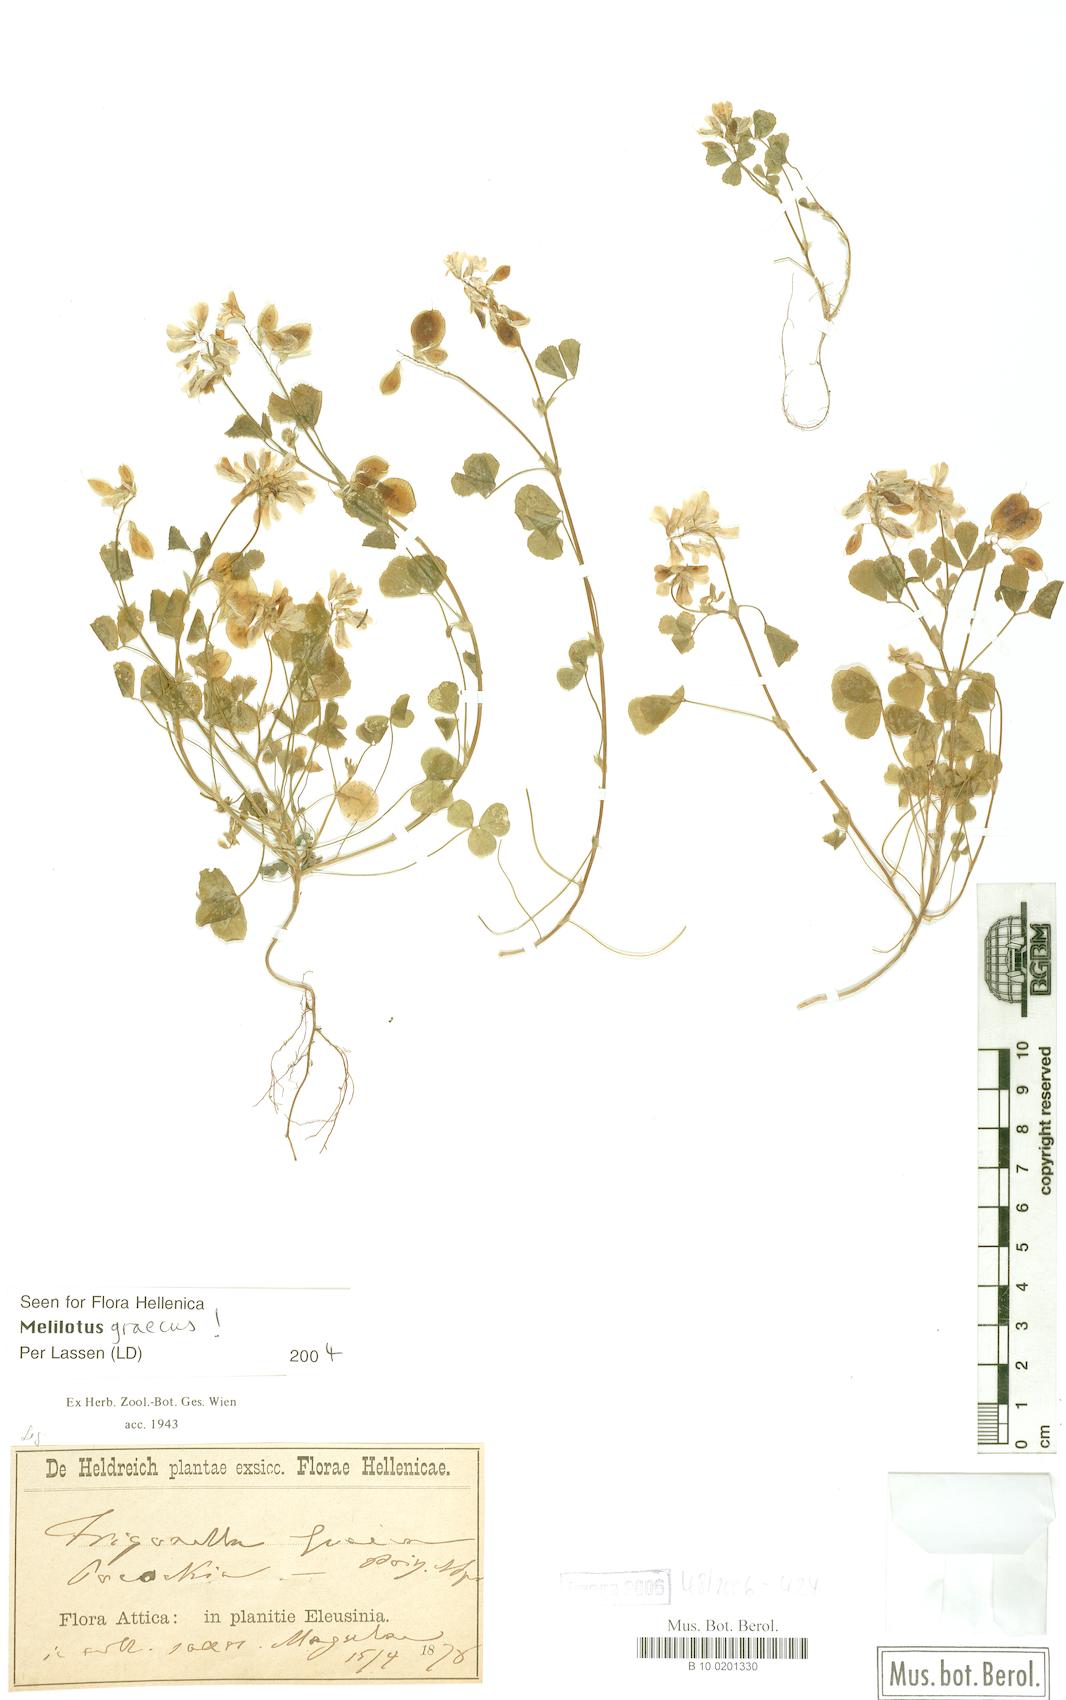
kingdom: Plantae
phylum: Tracheophyta
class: Magnoliopsida
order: Fabales
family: Fabaceae
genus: Trigonella
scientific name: Trigonella graeca
